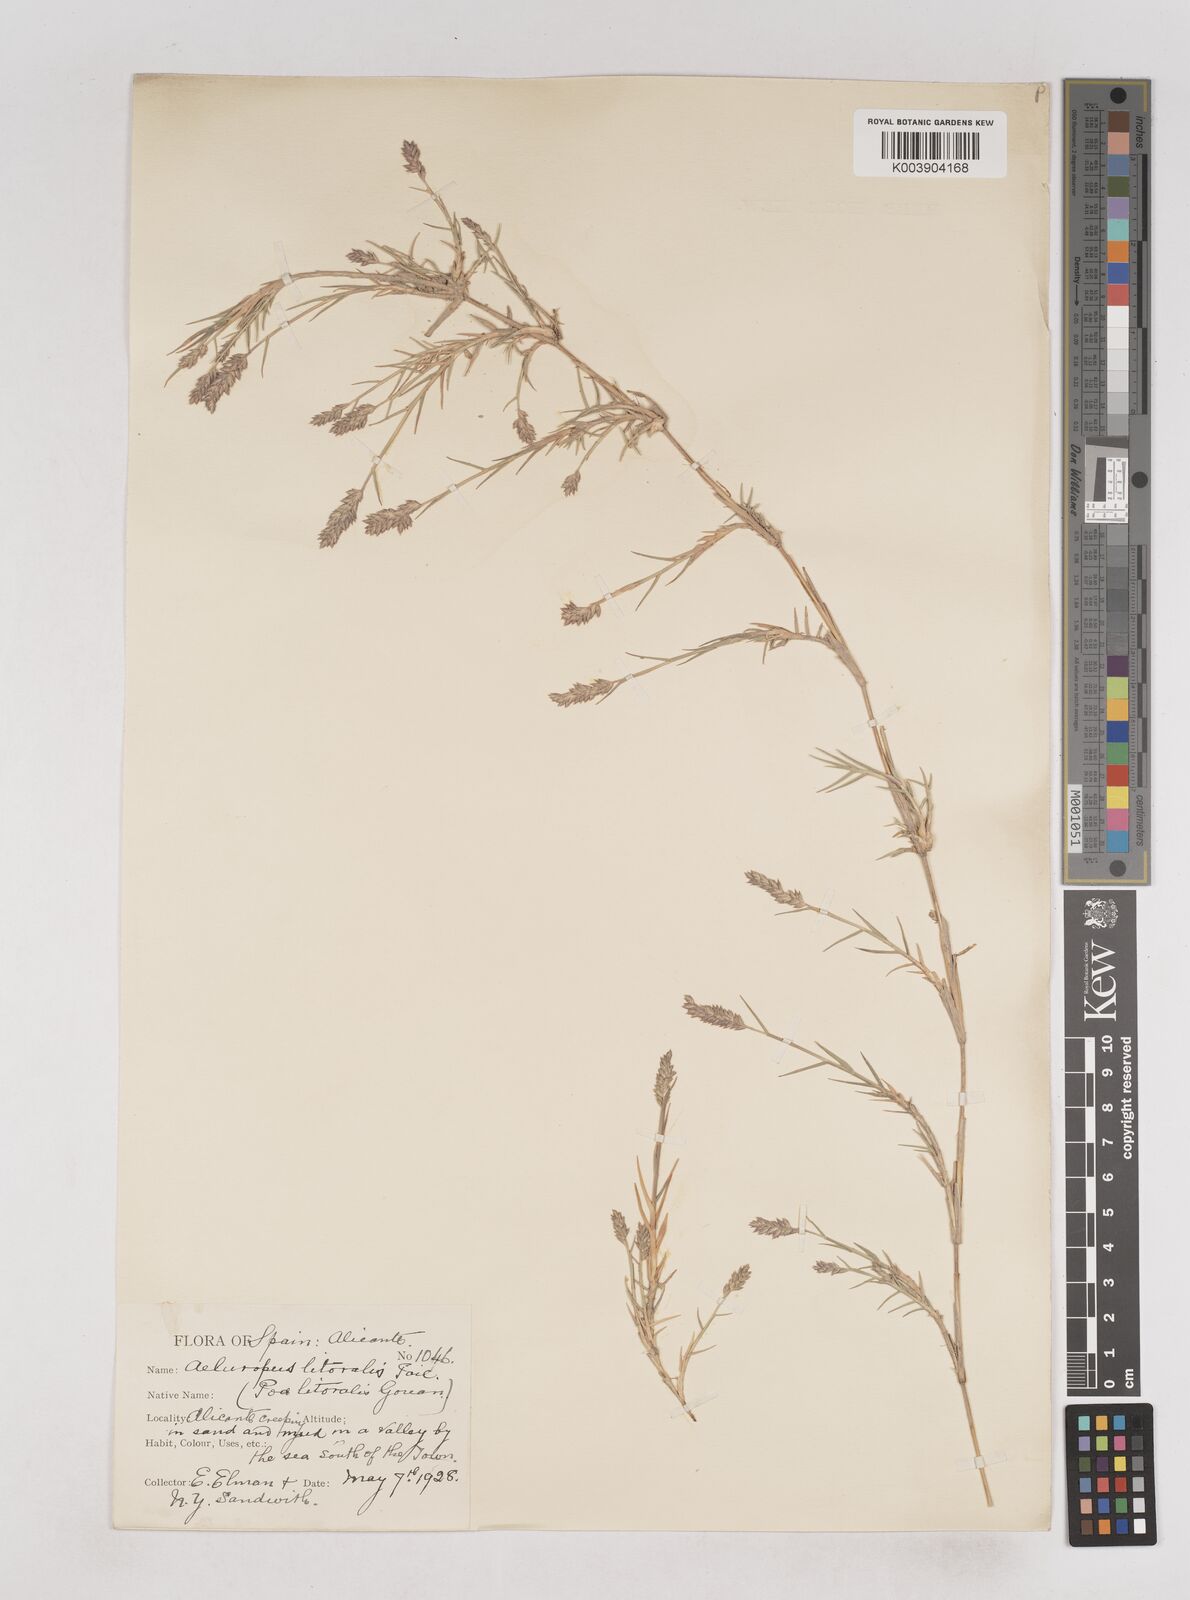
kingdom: Plantae
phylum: Tracheophyta
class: Liliopsida
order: Poales
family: Poaceae
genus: Aeluropus
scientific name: Aeluropus littoralis
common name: Indian walnut
